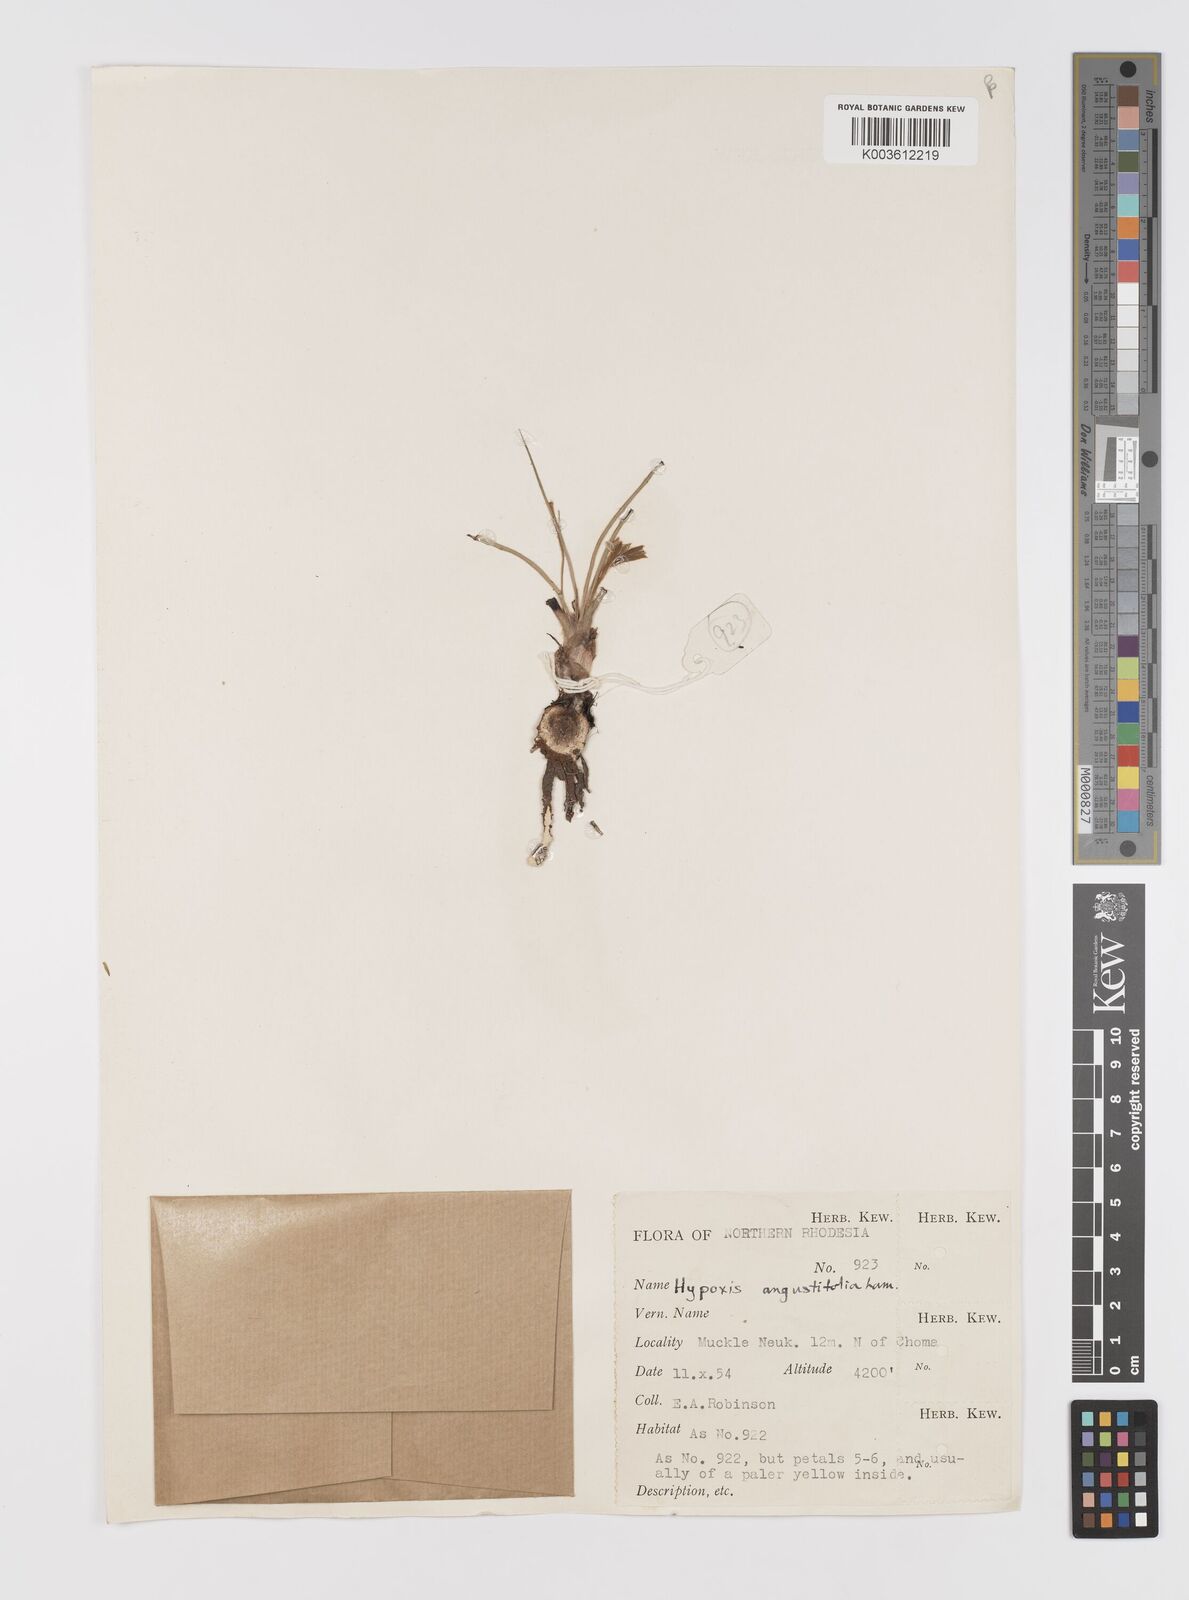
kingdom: Plantae
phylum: Tracheophyta
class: Liliopsida
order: Asparagales
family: Hypoxidaceae
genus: Hypoxis
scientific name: Hypoxis angustifolia
